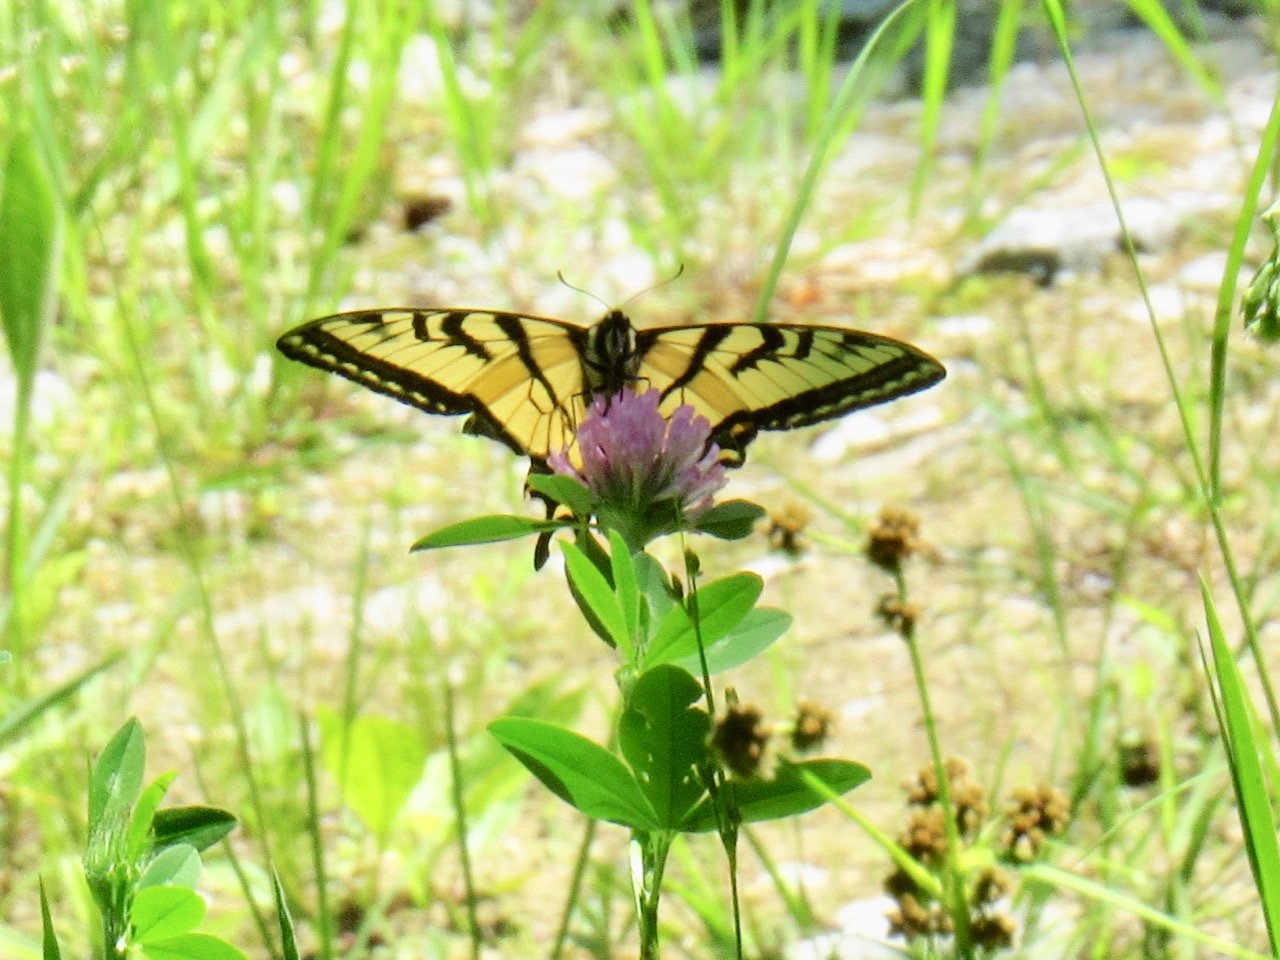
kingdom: Animalia
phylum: Arthropoda
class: Insecta
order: Lepidoptera
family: Papilionidae
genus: Pterourus
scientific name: Pterourus
